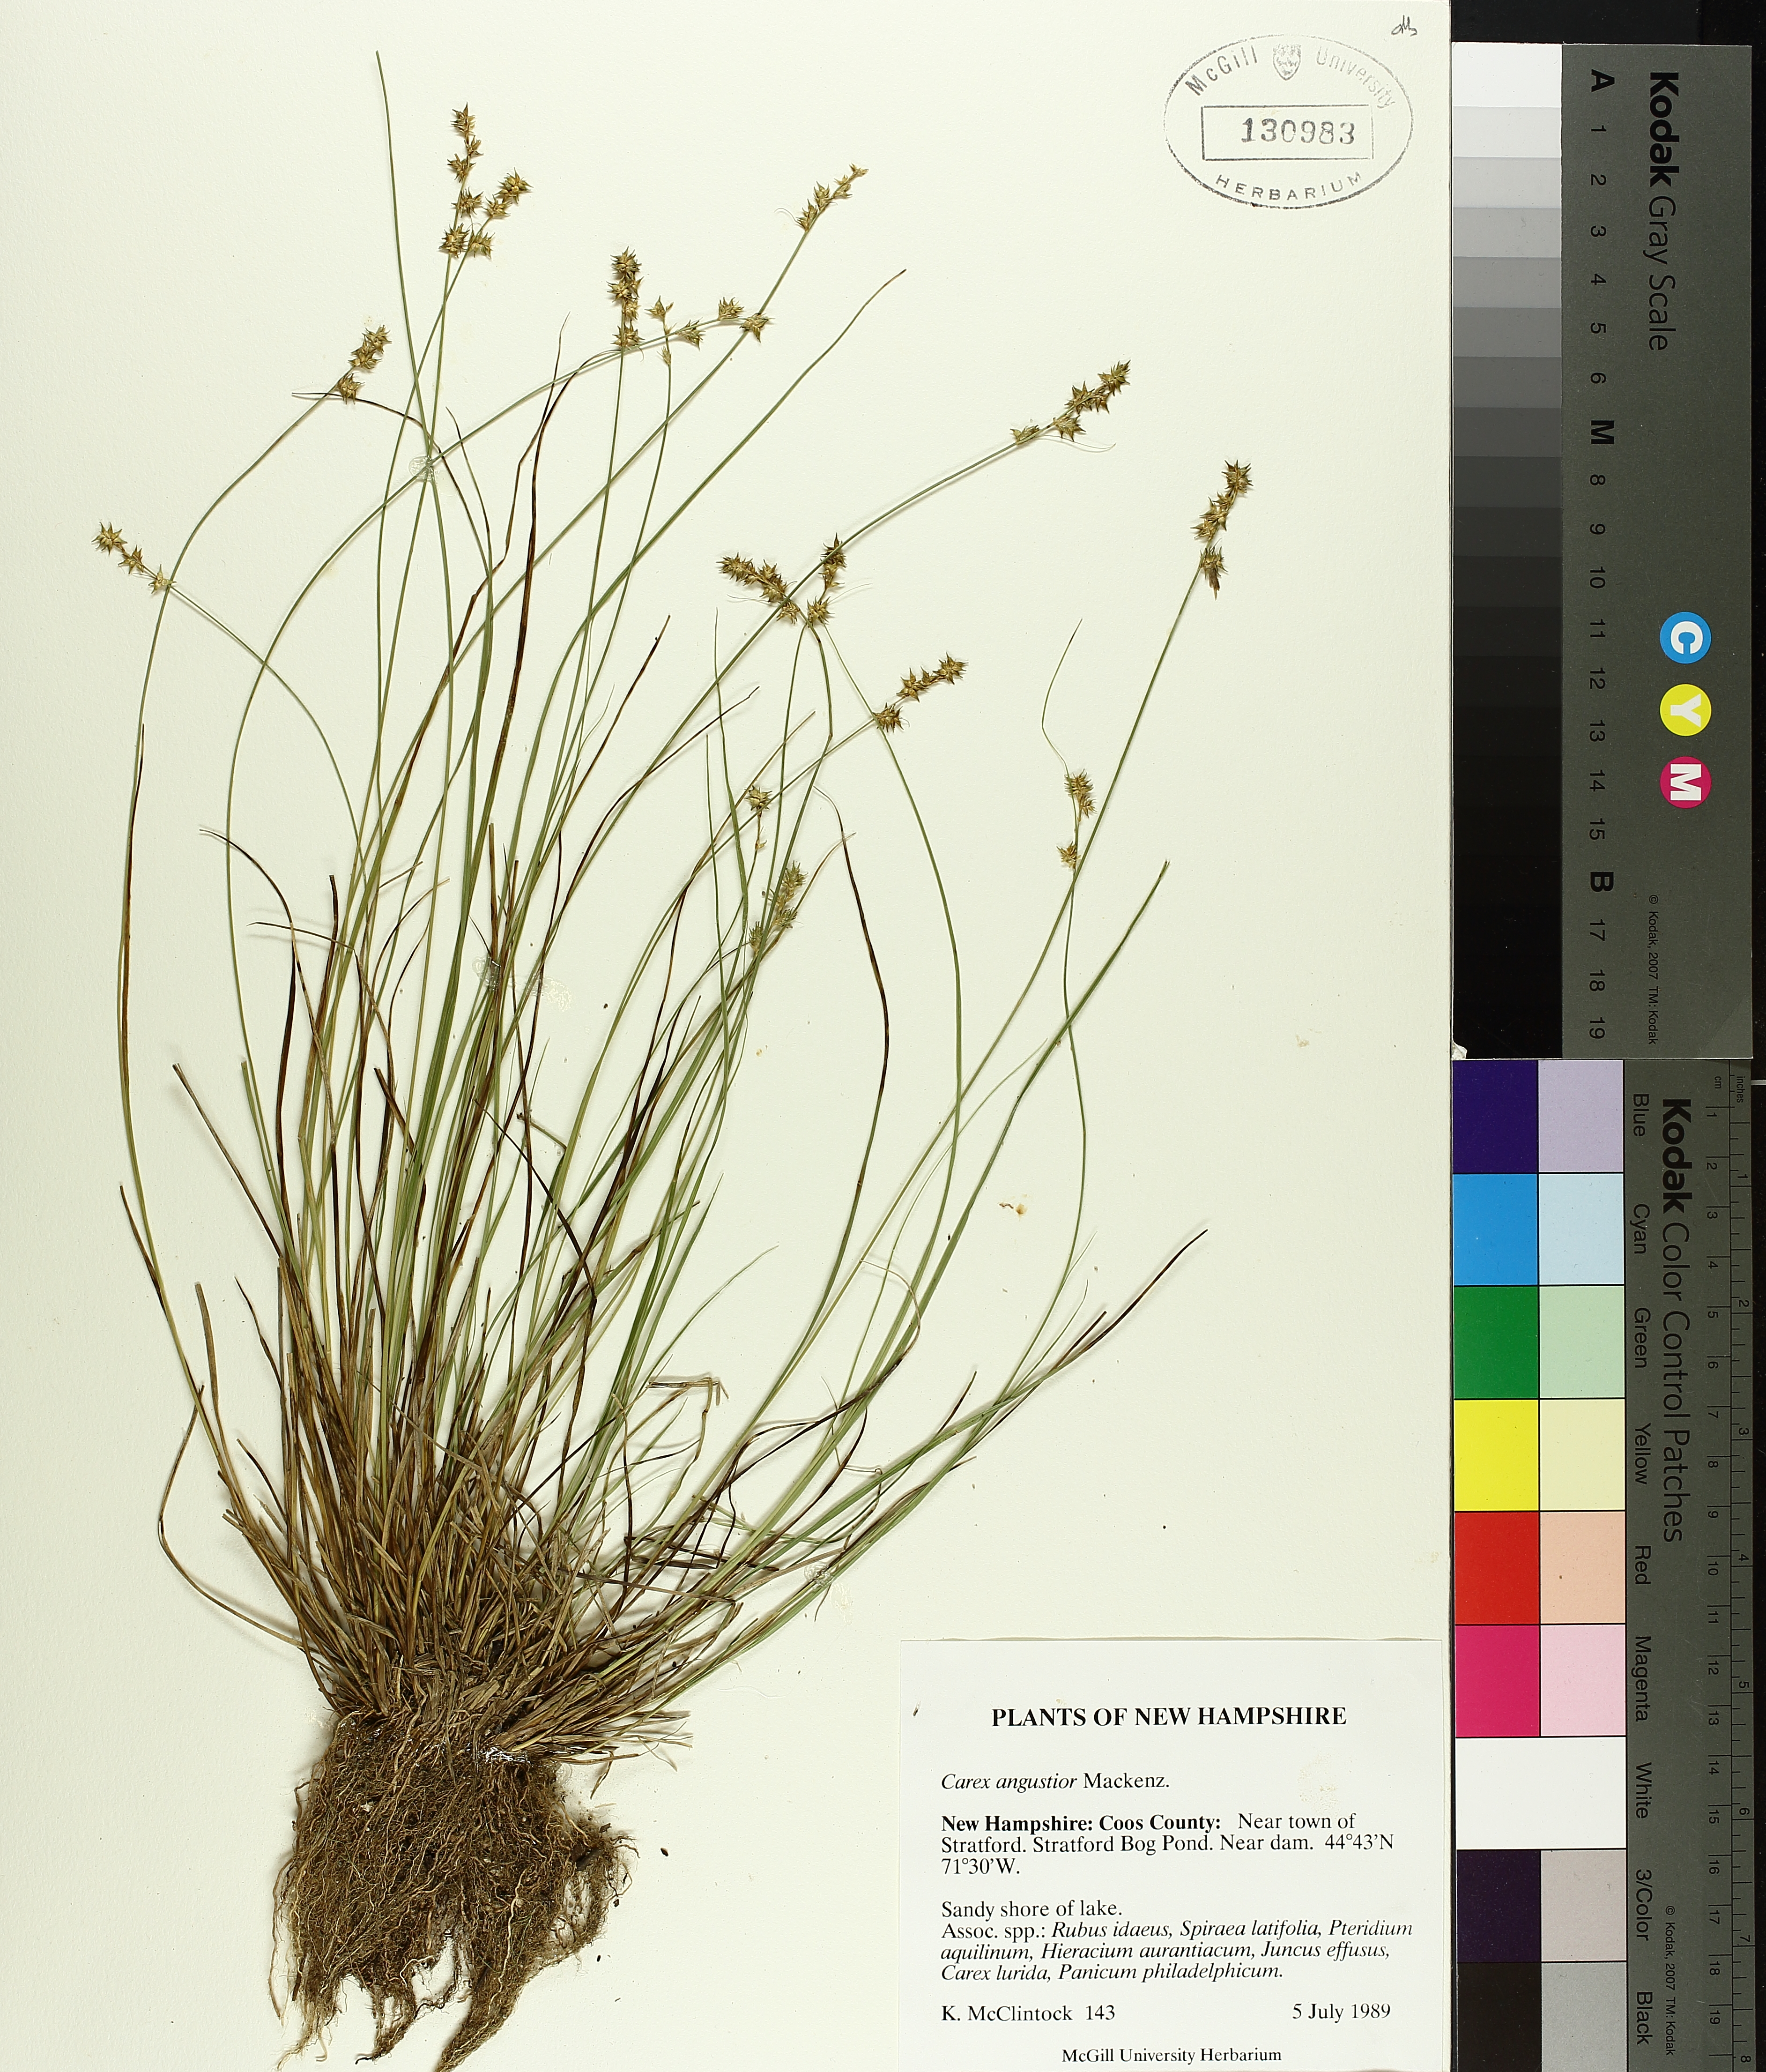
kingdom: Plantae
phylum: Tracheophyta
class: Liliopsida
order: Poales
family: Cyperaceae
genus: Carex
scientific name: Carex echinata
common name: Star sedge
